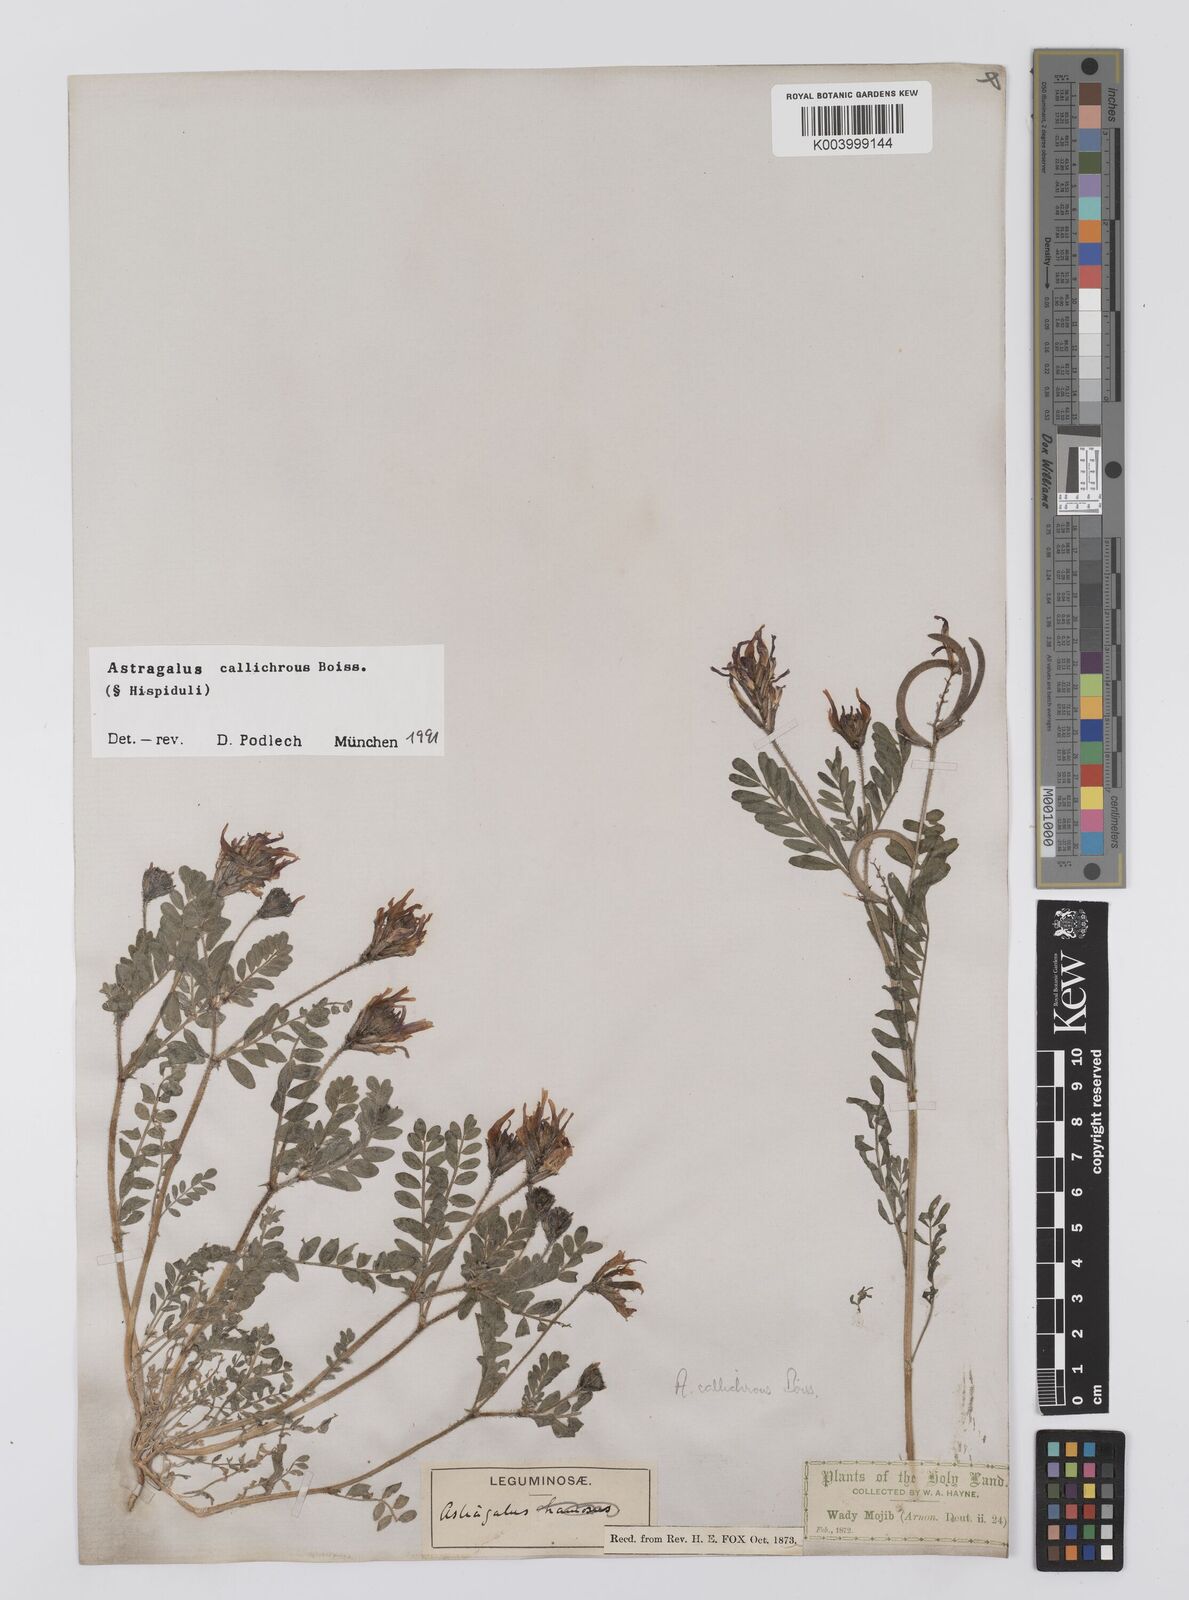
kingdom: Plantae
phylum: Tracheophyta
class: Magnoliopsida
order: Fabales
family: Fabaceae
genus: Astragalus
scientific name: Astragalus callichrous
